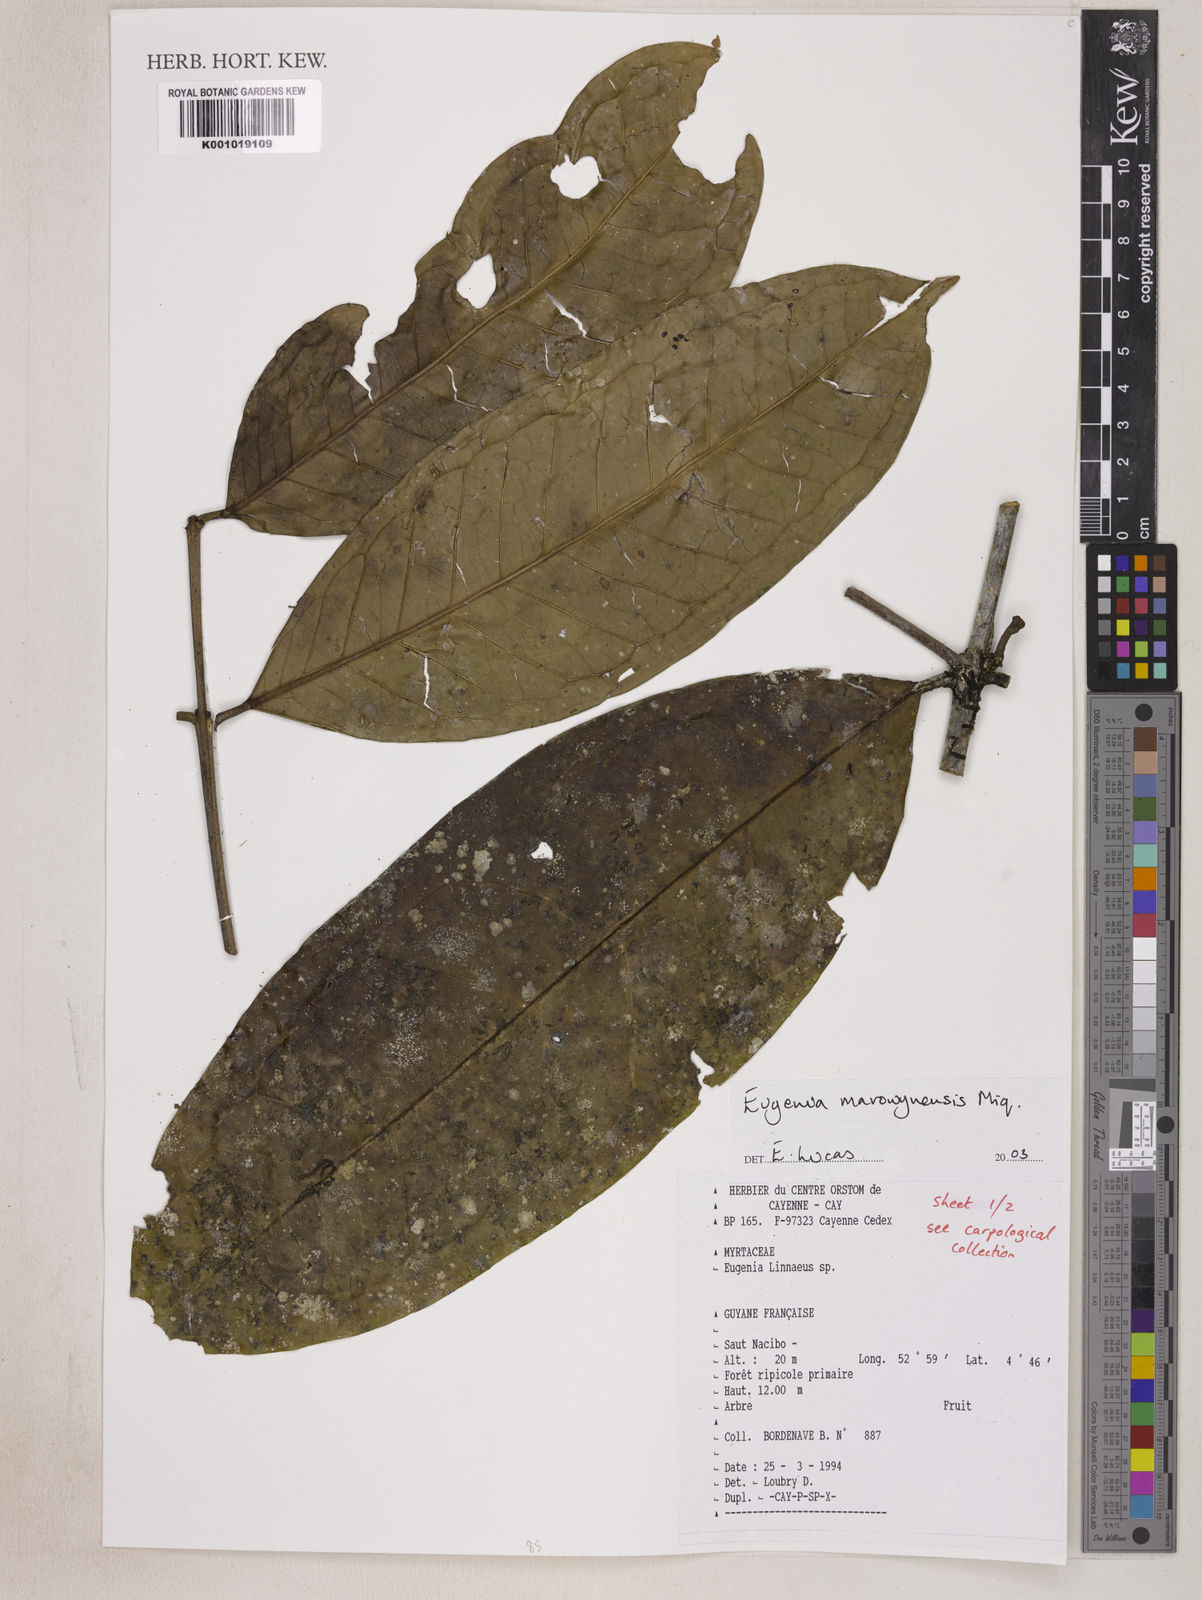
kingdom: Plantae
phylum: Tracheophyta
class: Magnoliopsida
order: Myrtales
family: Myrtaceae
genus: Eugenia
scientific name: Eugenia marowynensis
